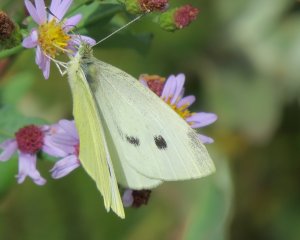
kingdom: Animalia
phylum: Arthropoda
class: Insecta
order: Lepidoptera
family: Pieridae
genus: Pieris
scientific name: Pieris rapae
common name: Cabbage White
